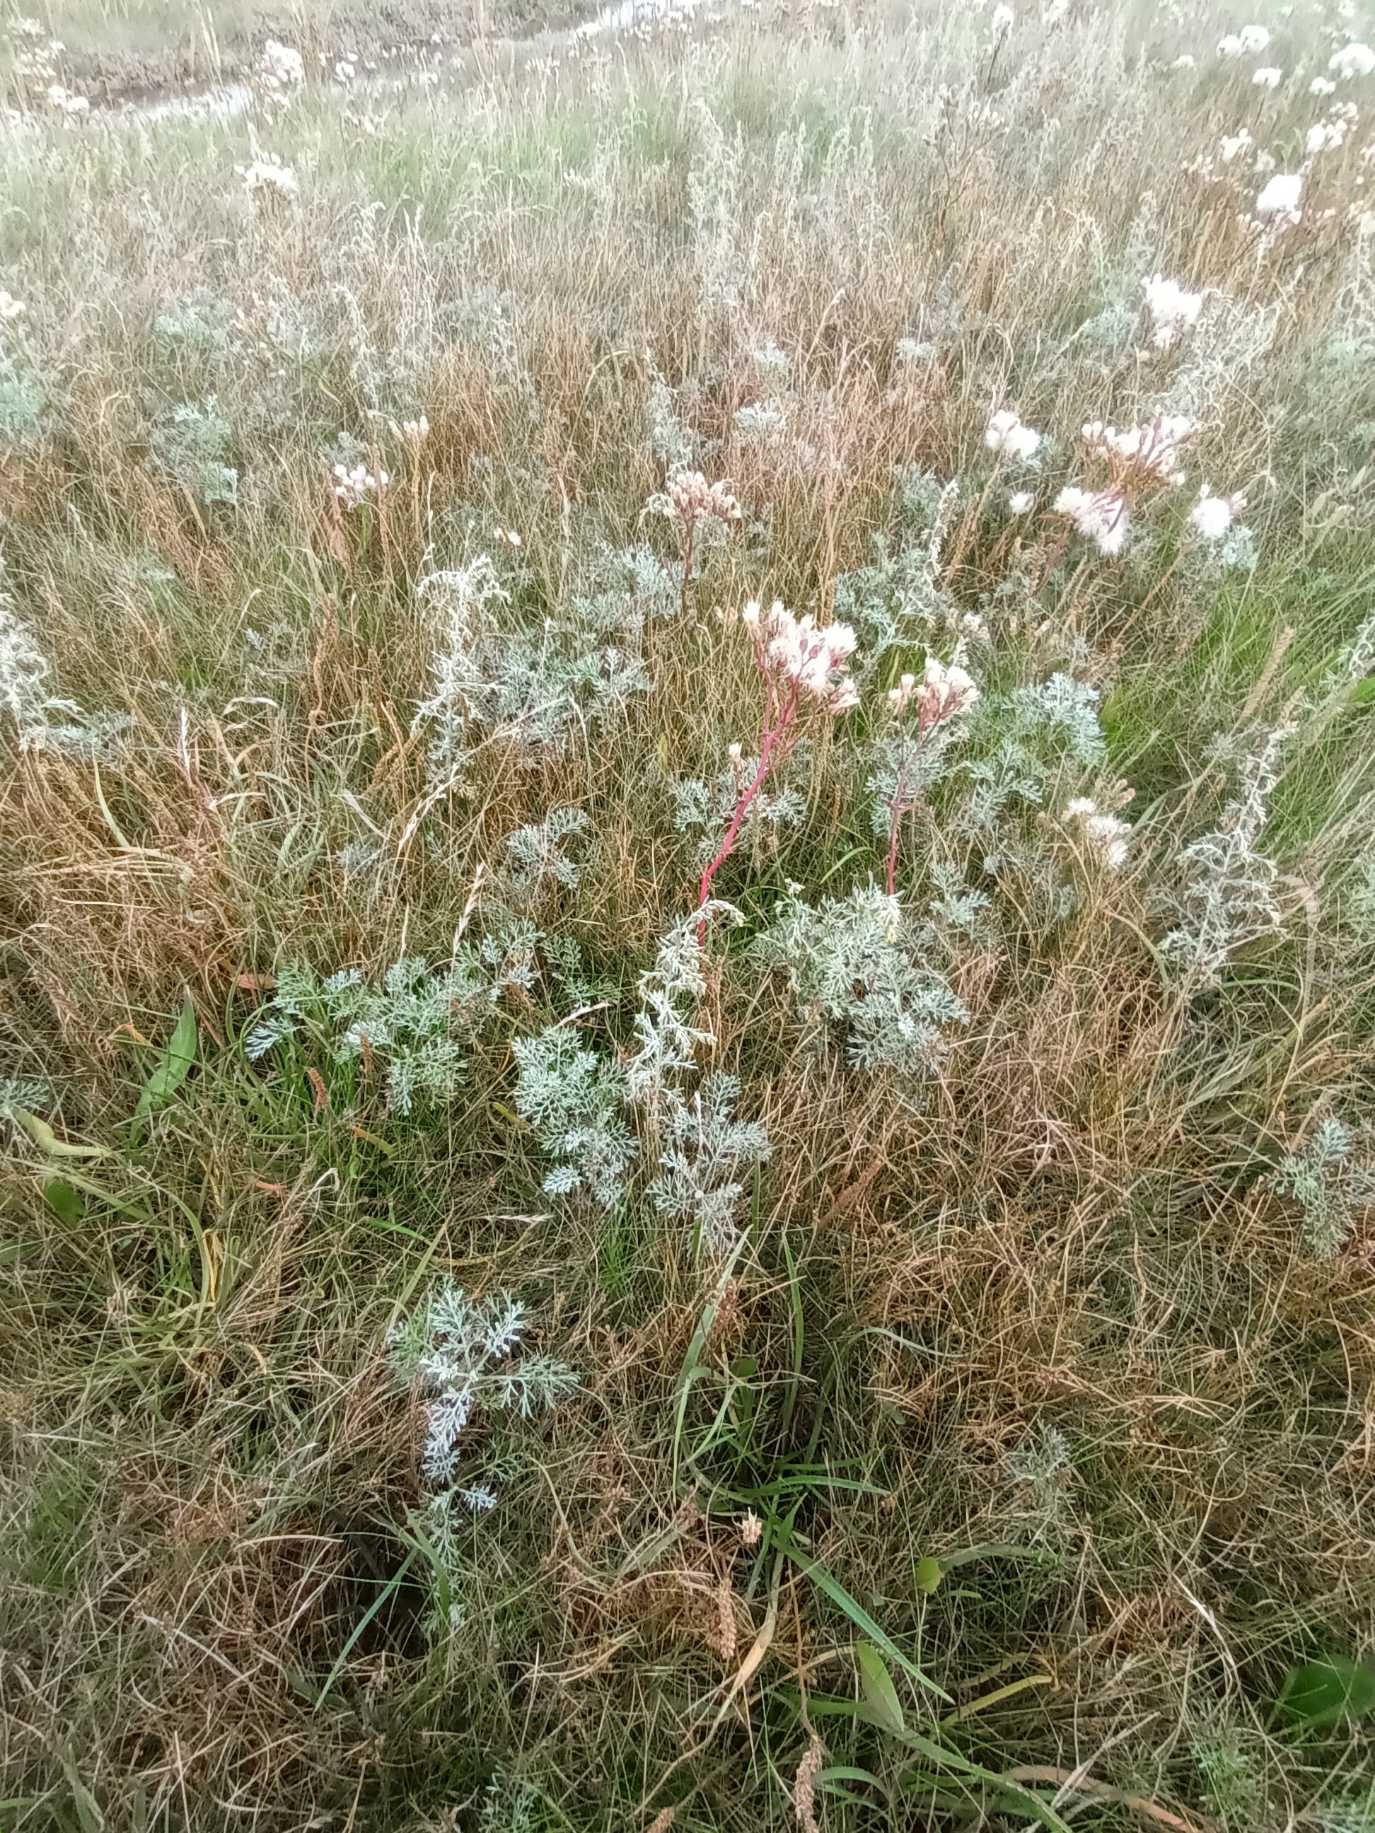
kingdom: Plantae
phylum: Tracheophyta
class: Magnoliopsida
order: Asterales
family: Asteraceae
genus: Artemisia
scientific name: Artemisia maritima
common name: Strandmalurt
